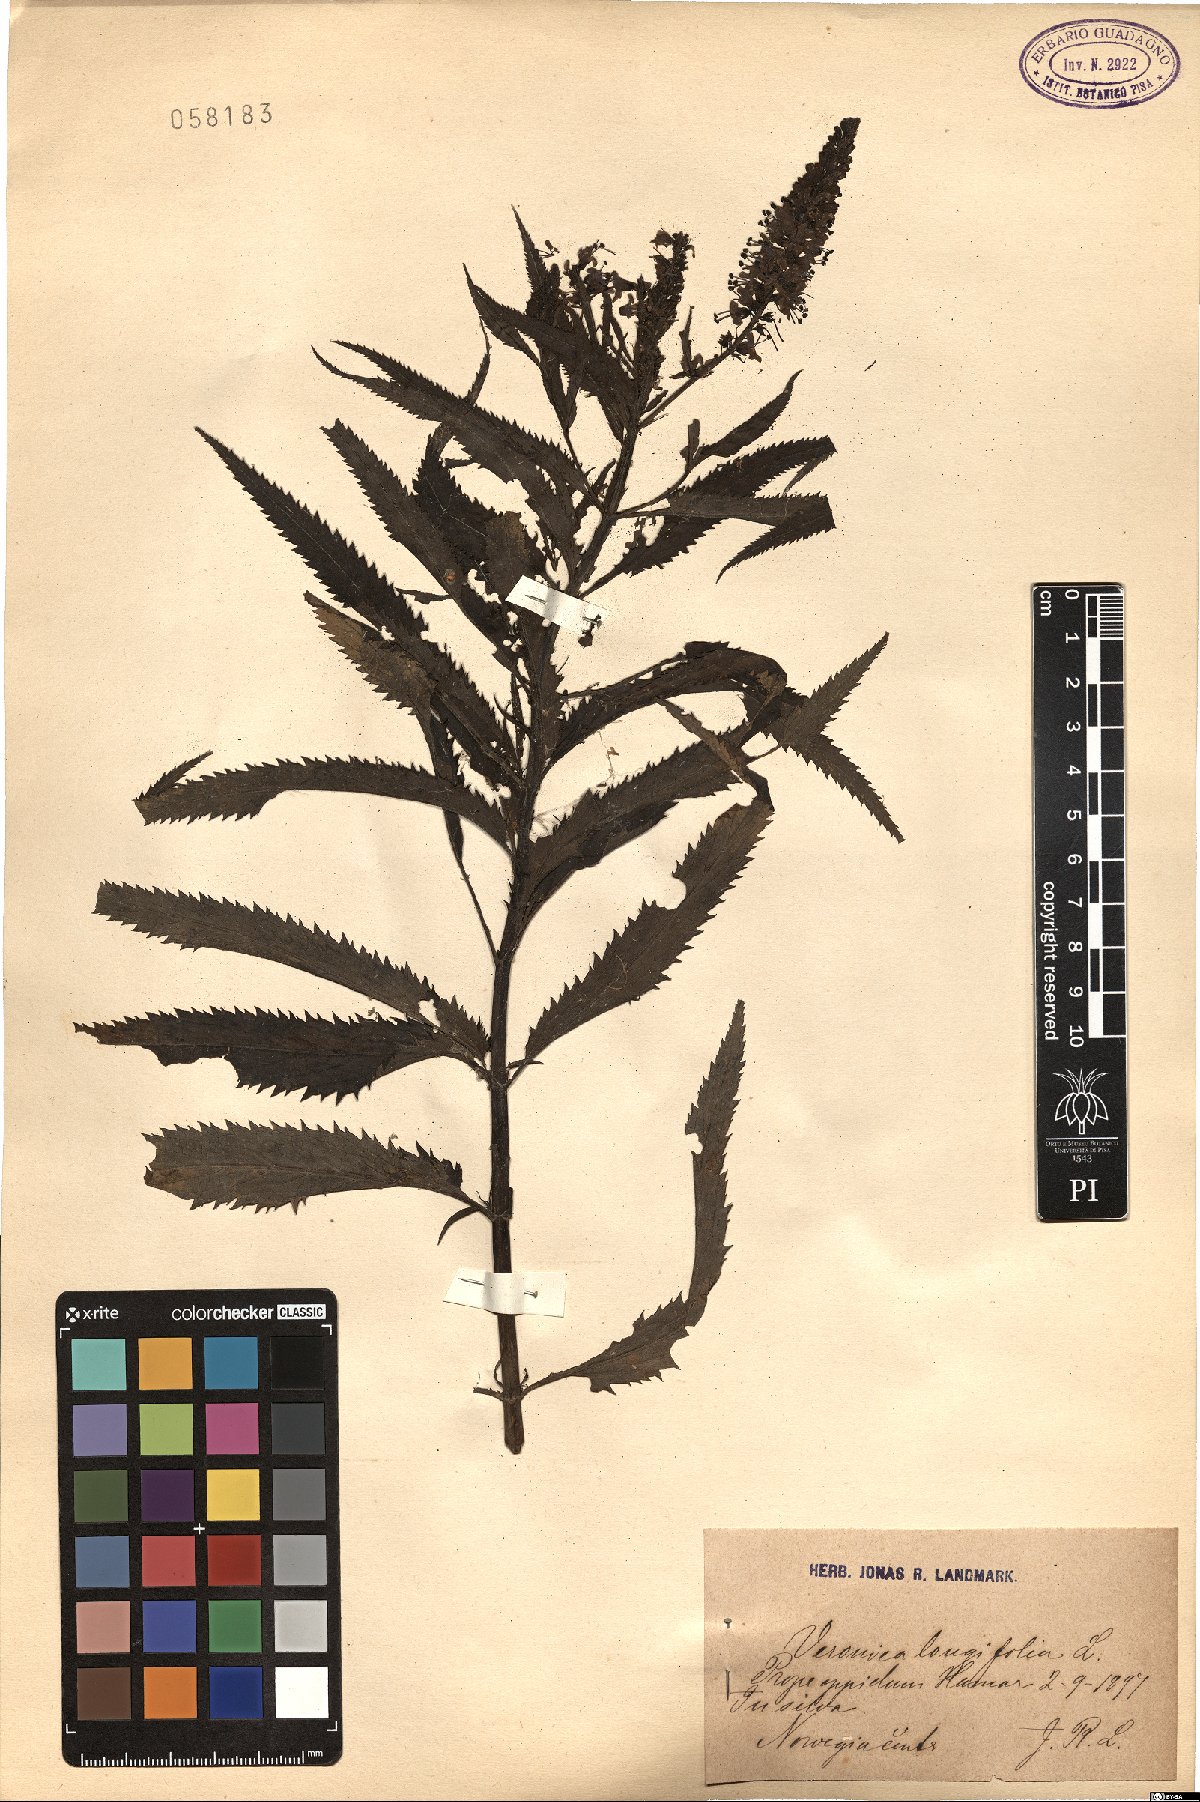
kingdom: Plantae
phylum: Tracheophyta
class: Magnoliopsida
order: Lamiales
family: Plantaginaceae
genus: Veronica
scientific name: Veronica longifolia
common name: Garden speedwell
